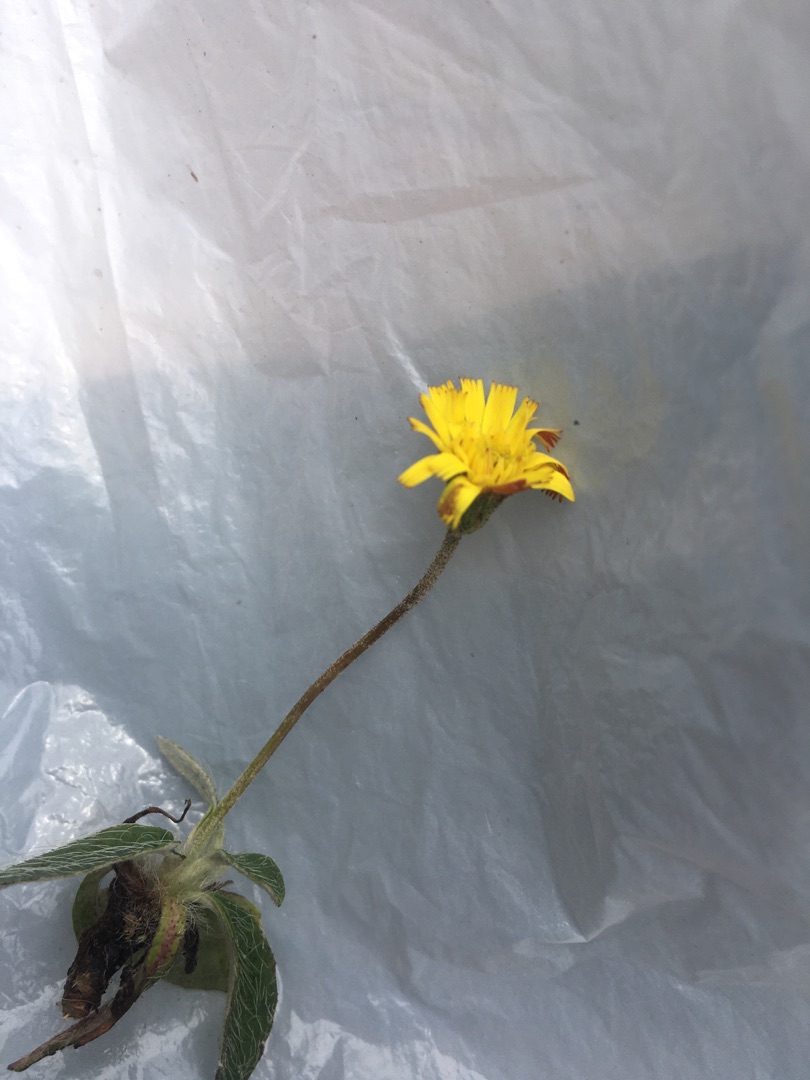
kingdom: Plantae
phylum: Tracheophyta
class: Magnoliopsida
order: Asterales
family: Asteraceae
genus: Pilosella
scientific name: Pilosella officinarum
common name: Håret høgeurt
